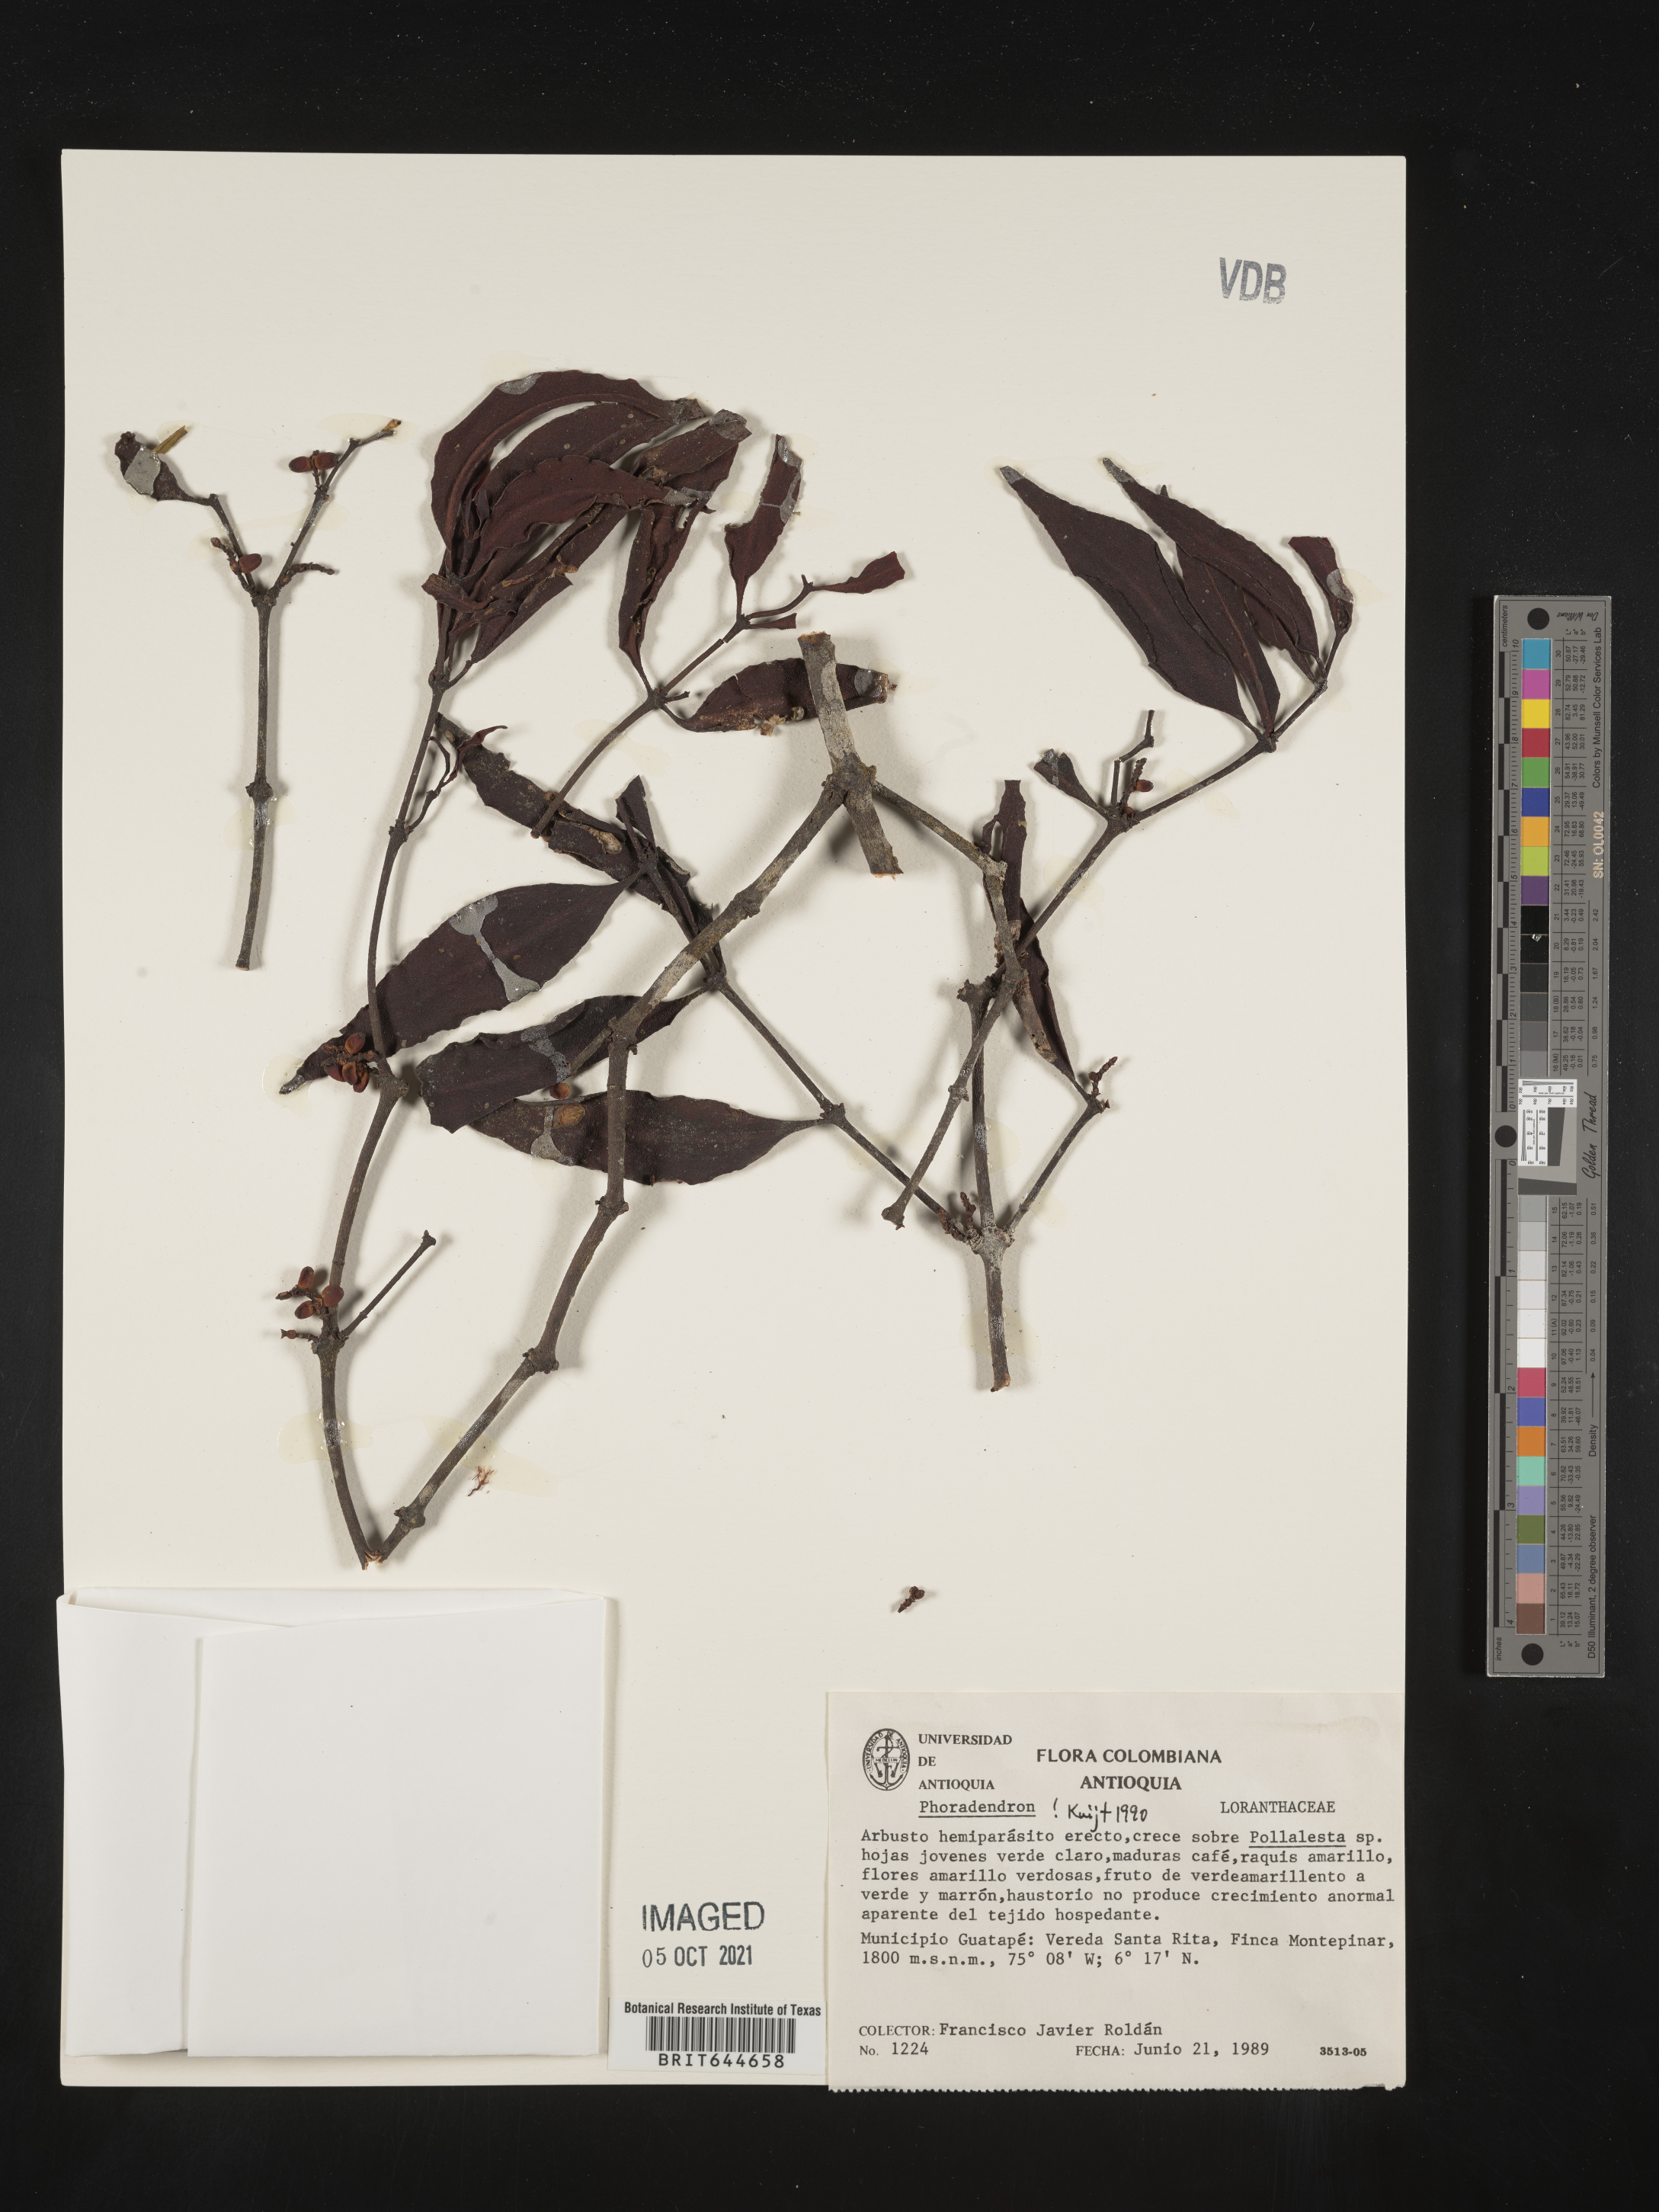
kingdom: Plantae
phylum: Tracheophyta
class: Magnoliopsida
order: Santalales
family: Viscaceae
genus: Phoradendron
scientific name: Phoradendron
